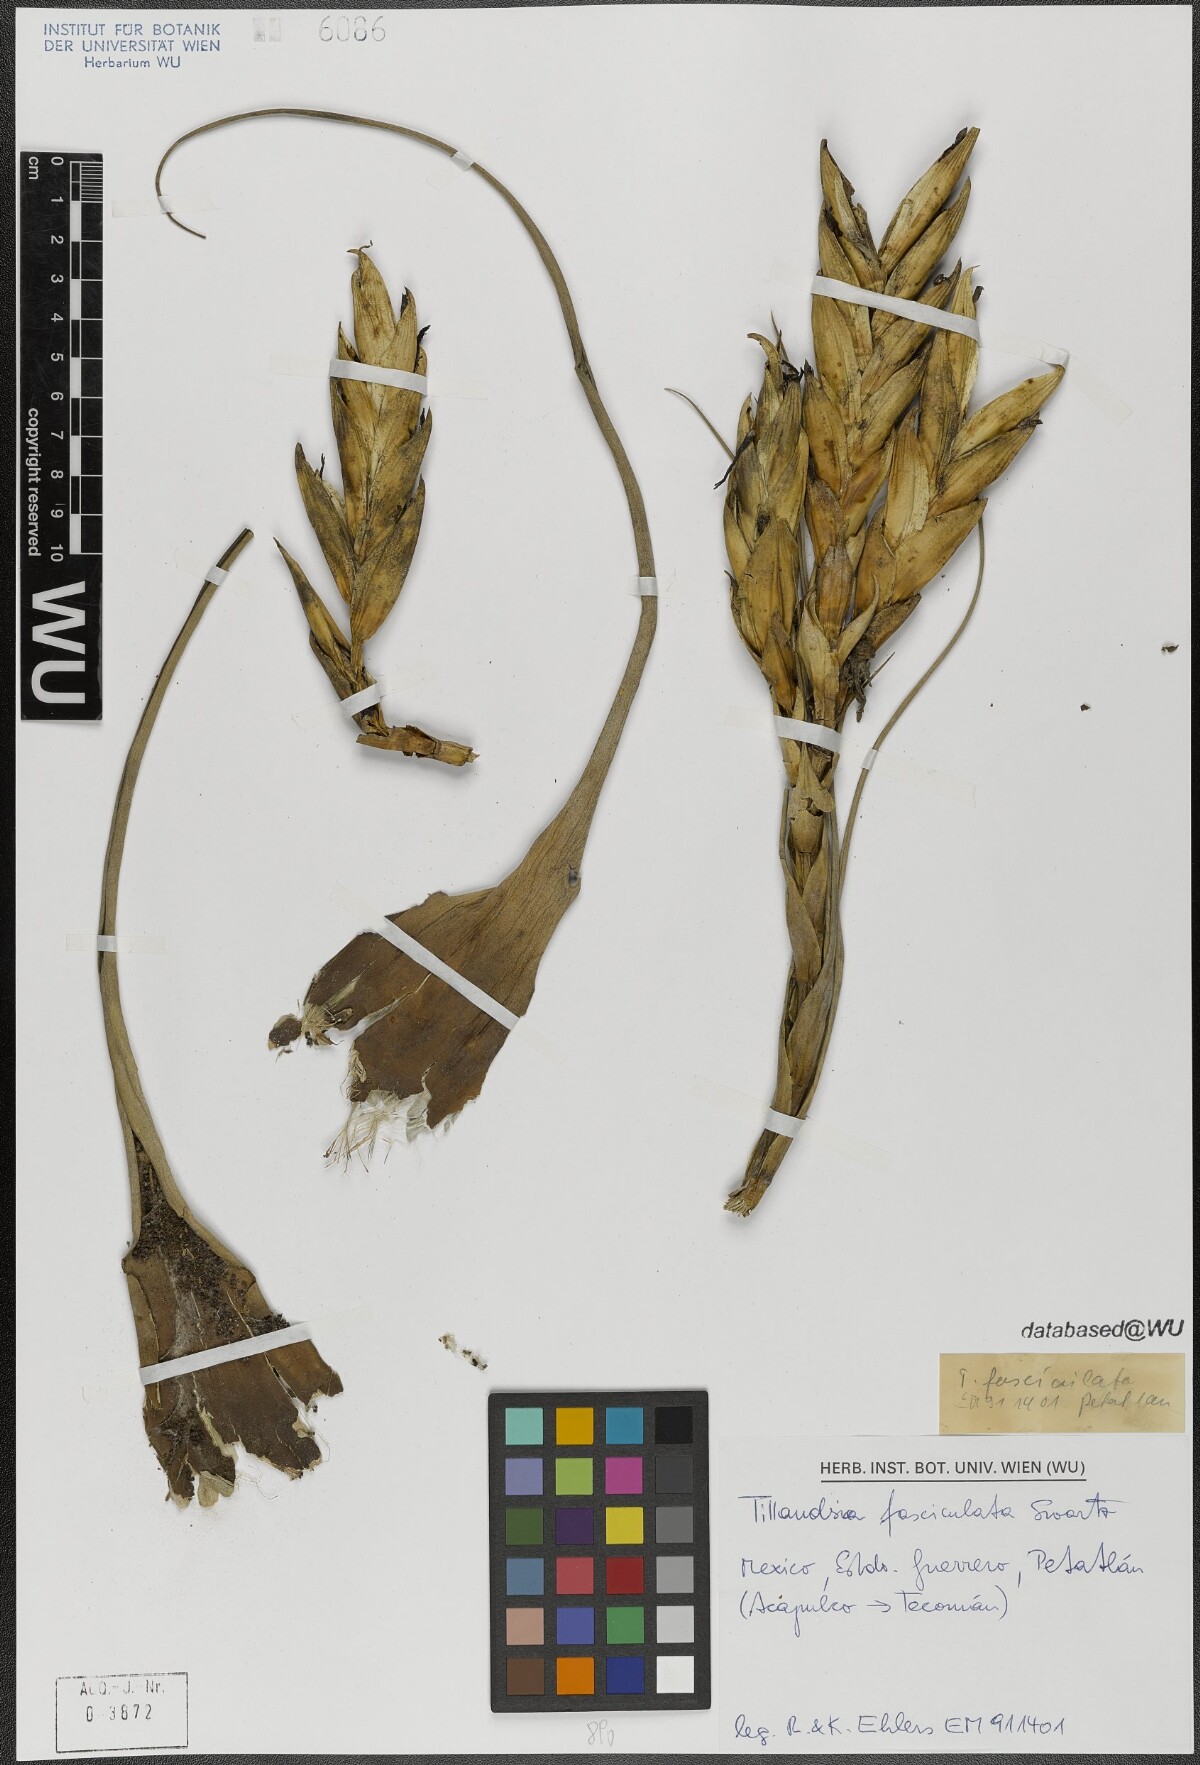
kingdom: Plantae
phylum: Tracheophyta
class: Liliopsida
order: Poales
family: Bromeliaceae
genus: Tillandsia
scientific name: Tillandsia fasciculata
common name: Giant airplant
